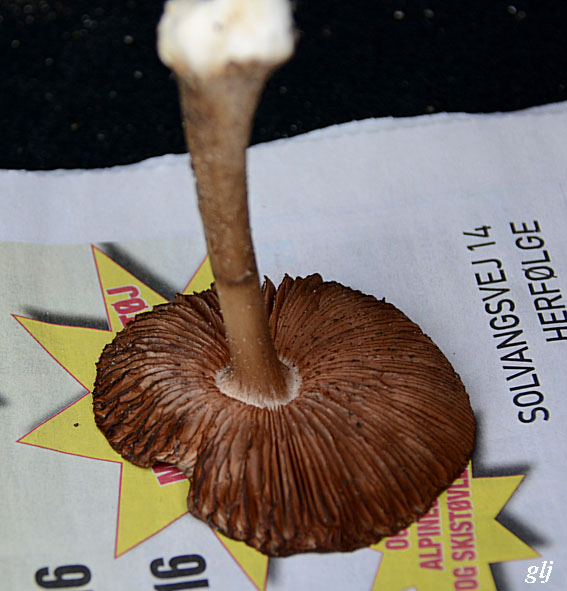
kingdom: Fungi
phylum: Basidiomycota
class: Agaricomycetes
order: Agaricales
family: Pluteaceae
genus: Volvopluteus
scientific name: Volvopluteus gloiocephalus
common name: høj posesvamp
